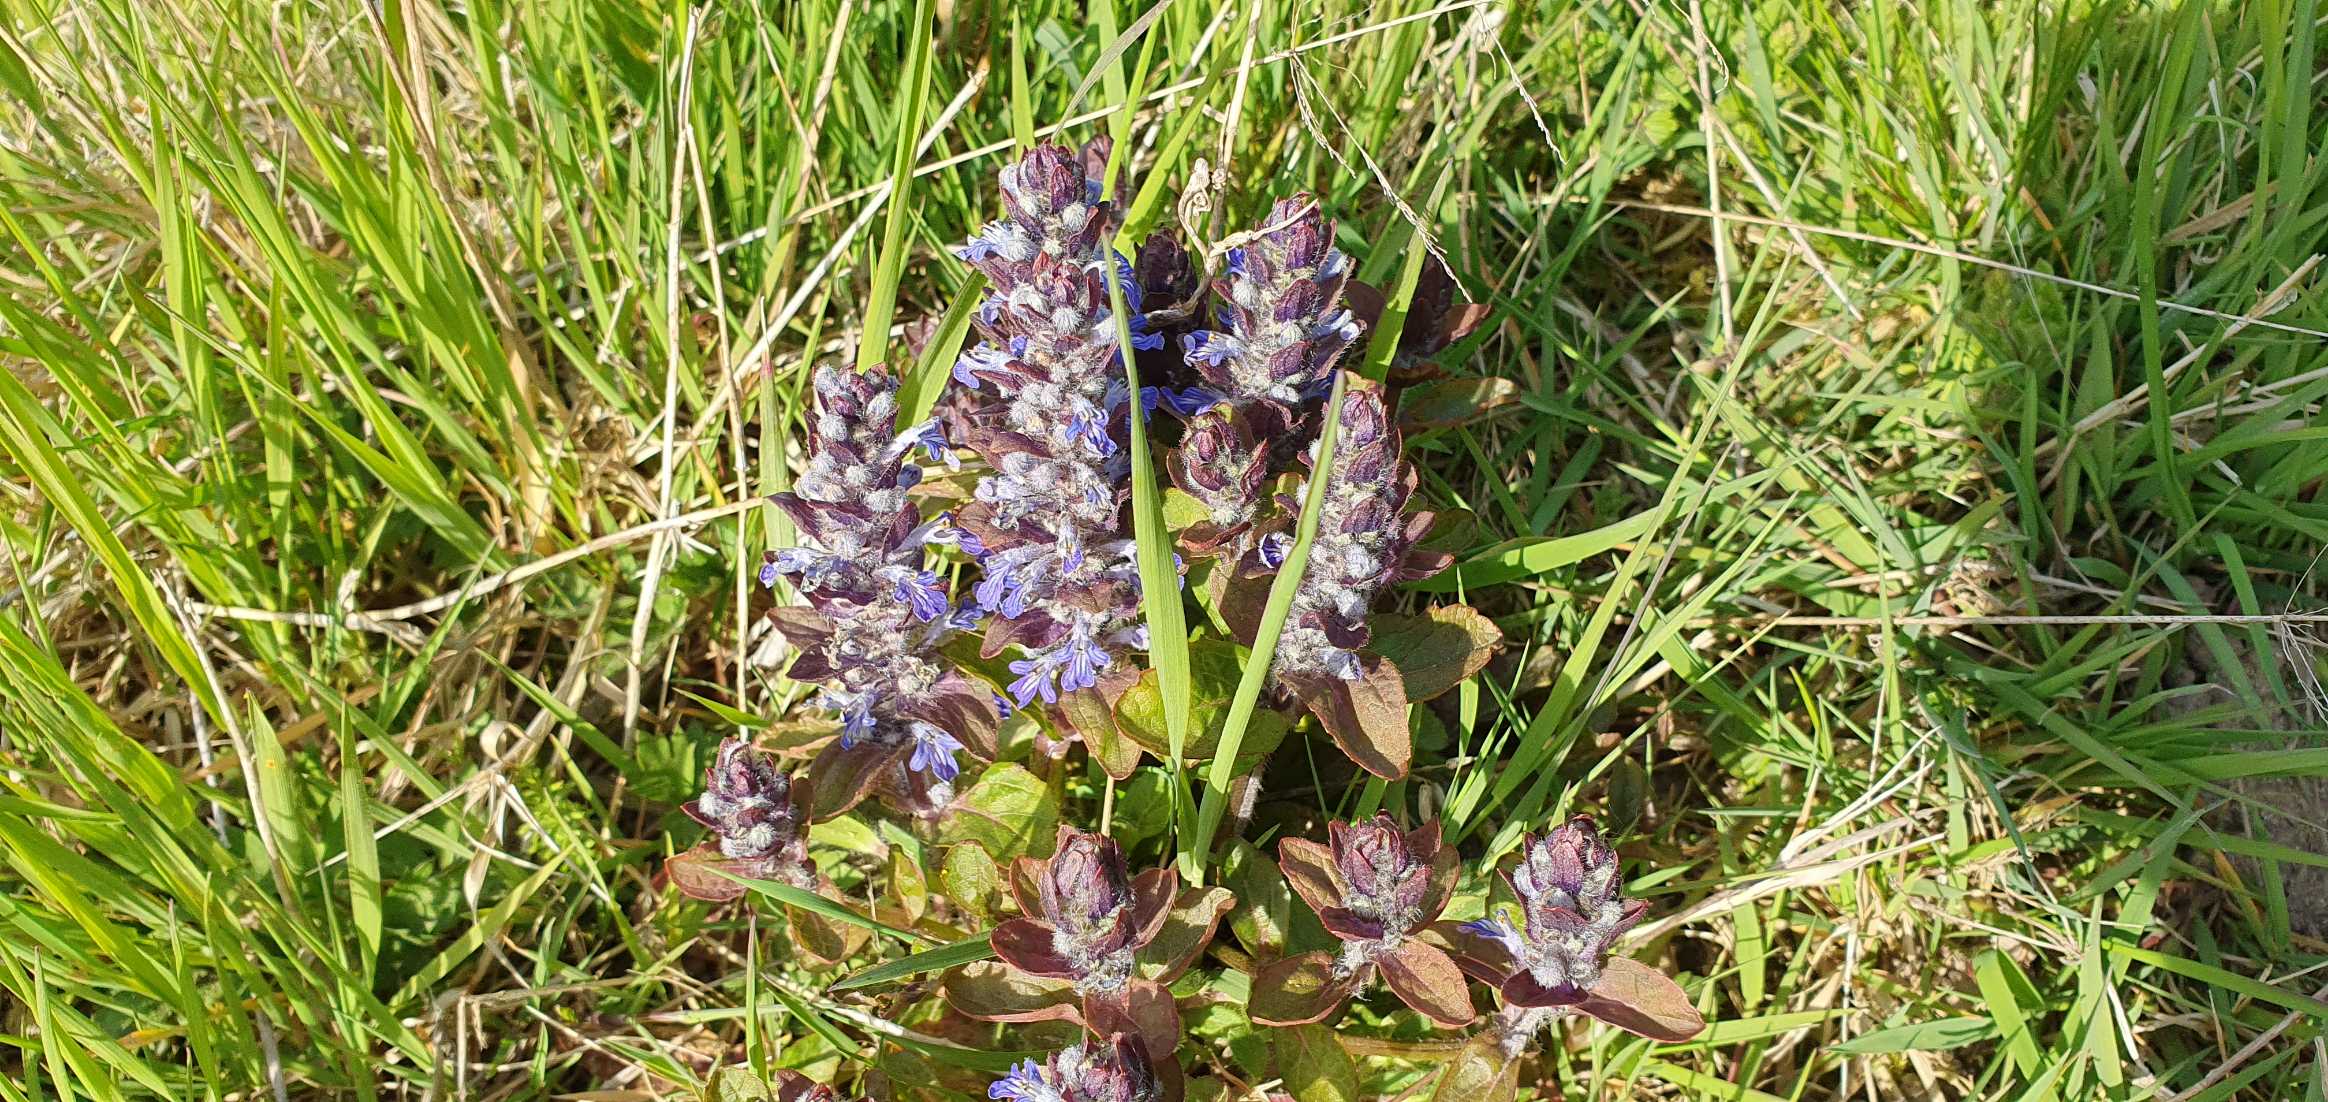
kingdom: Plantae
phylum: Tracheophyta
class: Magnoliopsida
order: Lamiales
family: Lamiaceae
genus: Ajuga
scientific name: Ajuga reptans
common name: Krybende læbeløs
